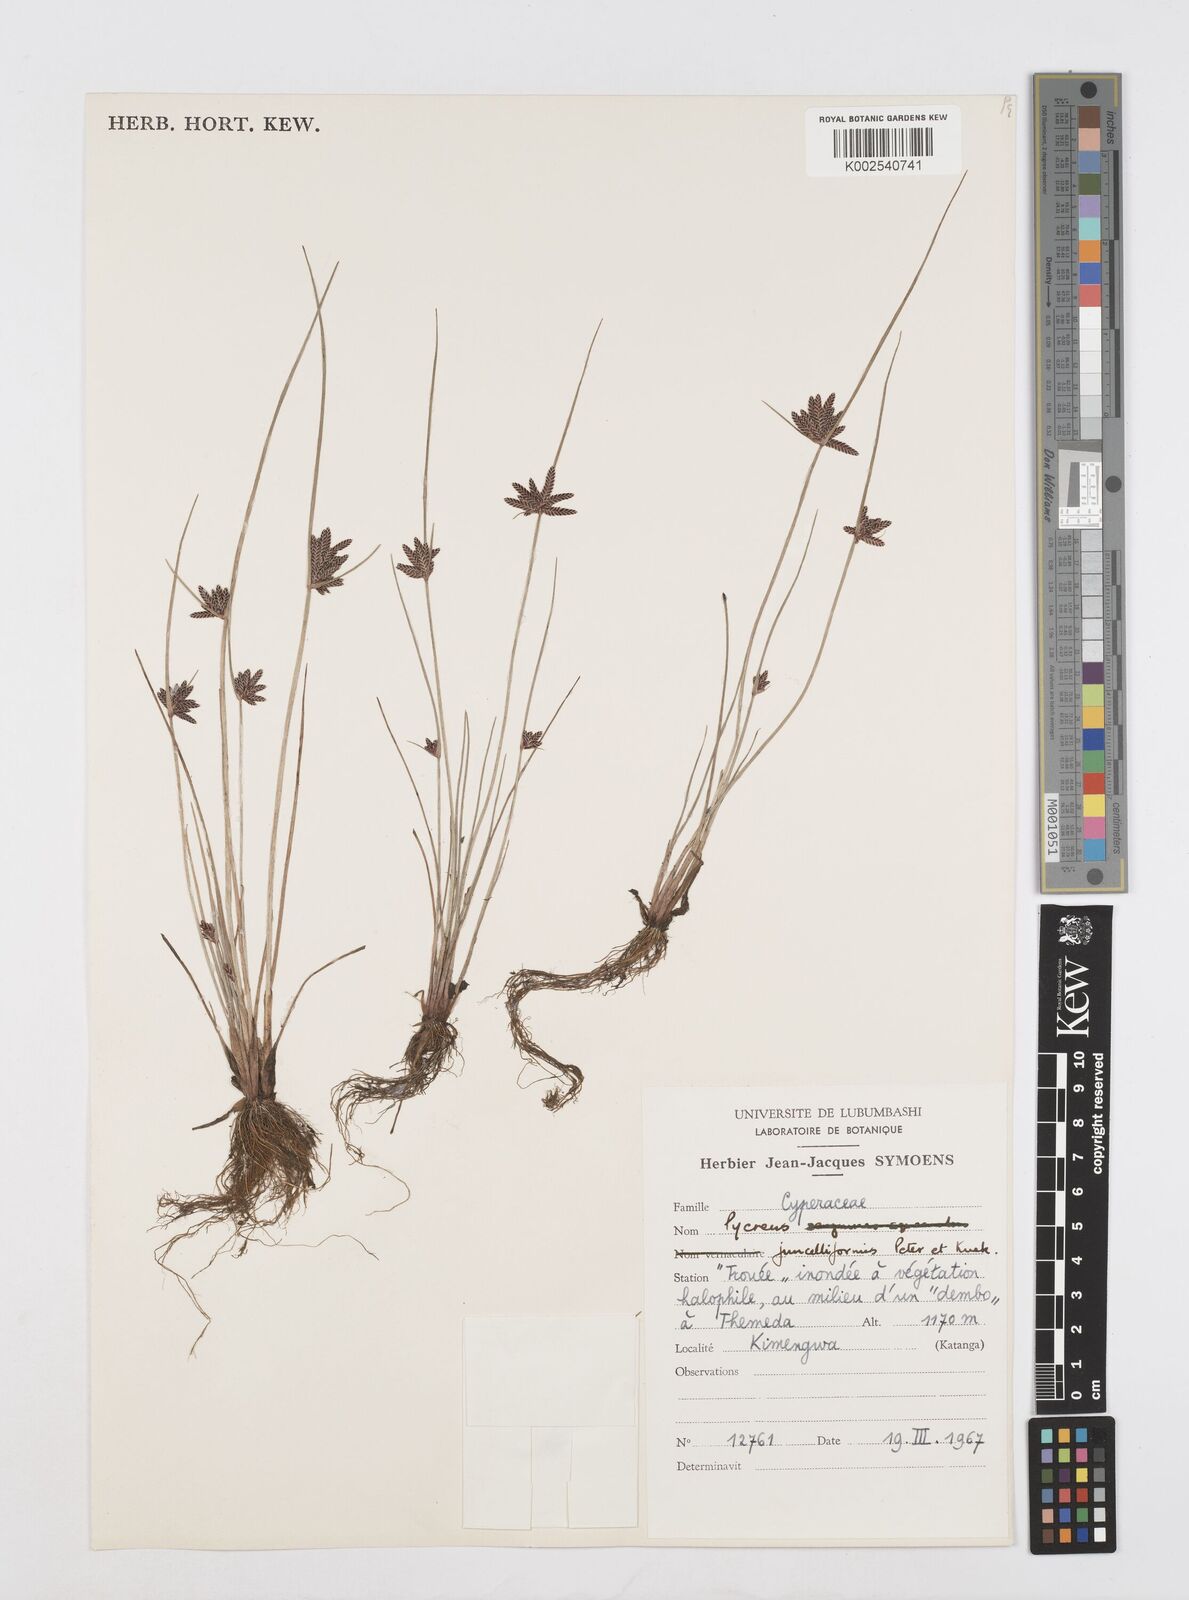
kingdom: Plantae
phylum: Tracheophyta
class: Liliopsida
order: Poales
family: Cyperaceae
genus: Cyperus
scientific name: Cyperus juncelliformis
